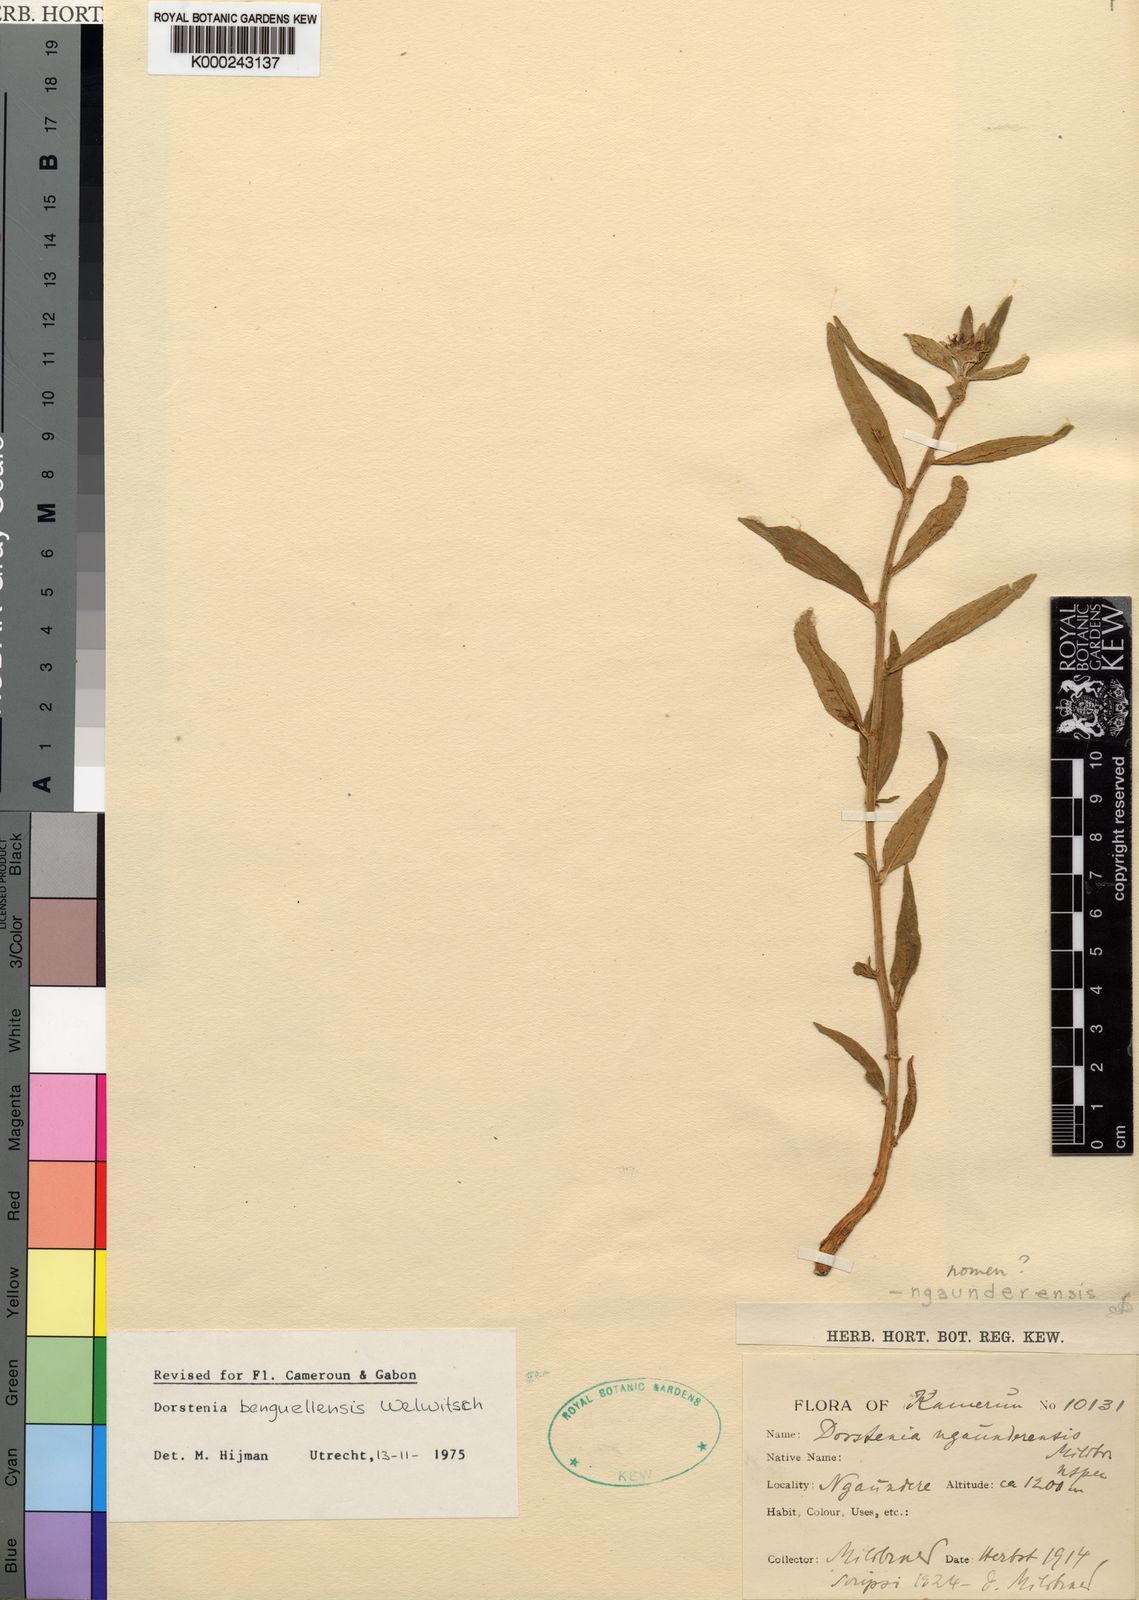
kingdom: Plantae
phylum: Tracheophyta
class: Magnoliopsida
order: Rosales
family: Moraceae
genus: Dorstenia
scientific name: Dorstenia benguellensis
